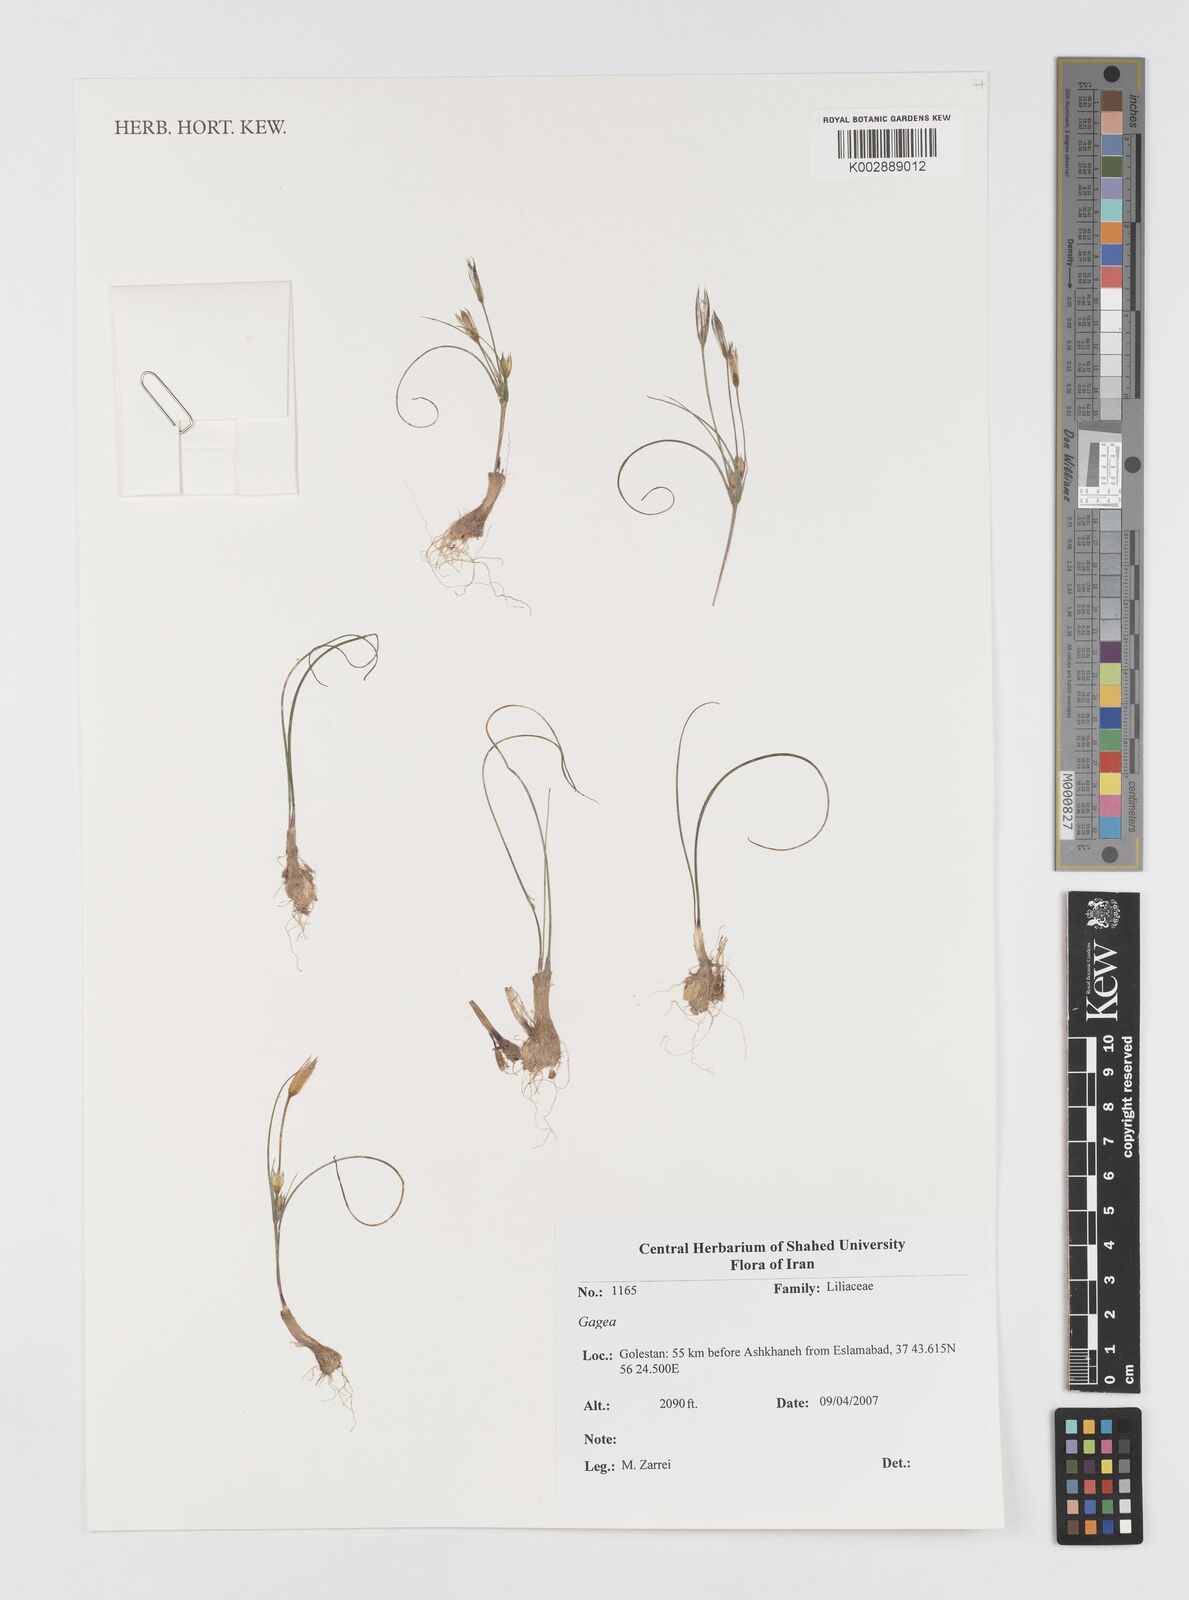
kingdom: Plantae
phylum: Tracheophyta
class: Liliopsida
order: Liliales
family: Liliaceae
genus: Gagea
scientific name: Gagea
